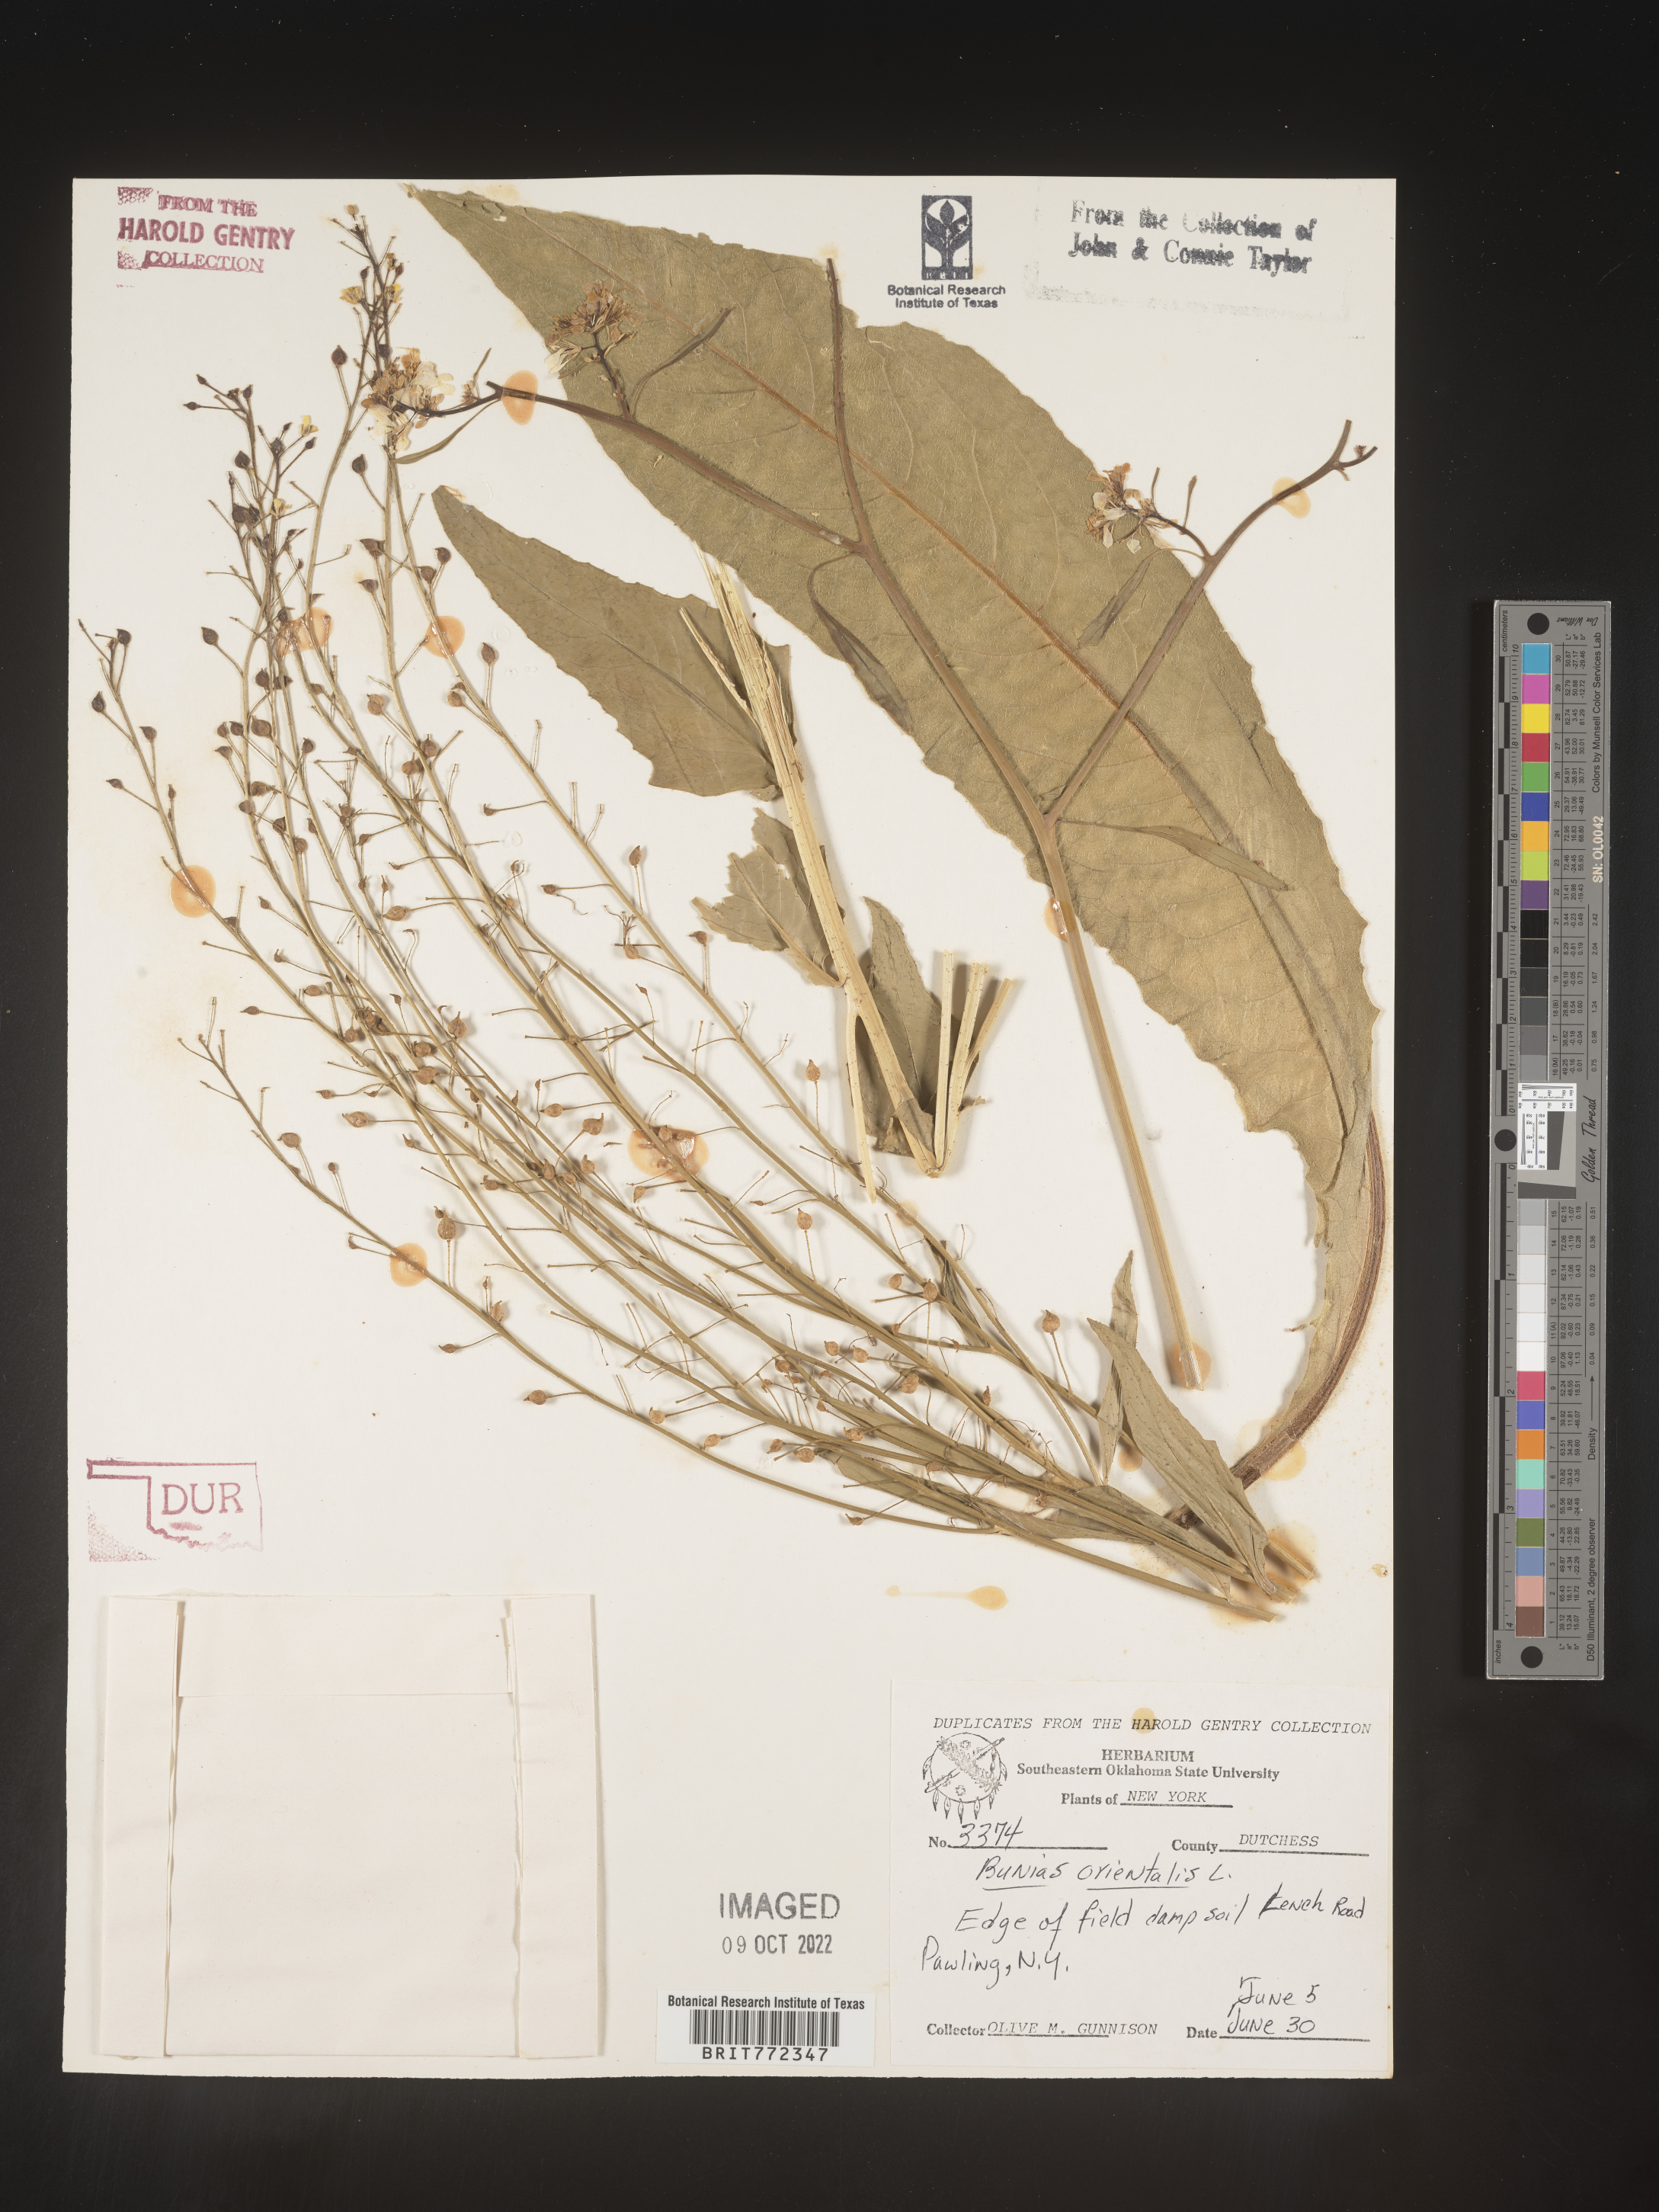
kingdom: Plantae
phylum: Tracheophyta
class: Magnoliopsida
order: Brassicales
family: Brassicaceae
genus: Bunias
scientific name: Bunias orientalis
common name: Warty-cabbage
